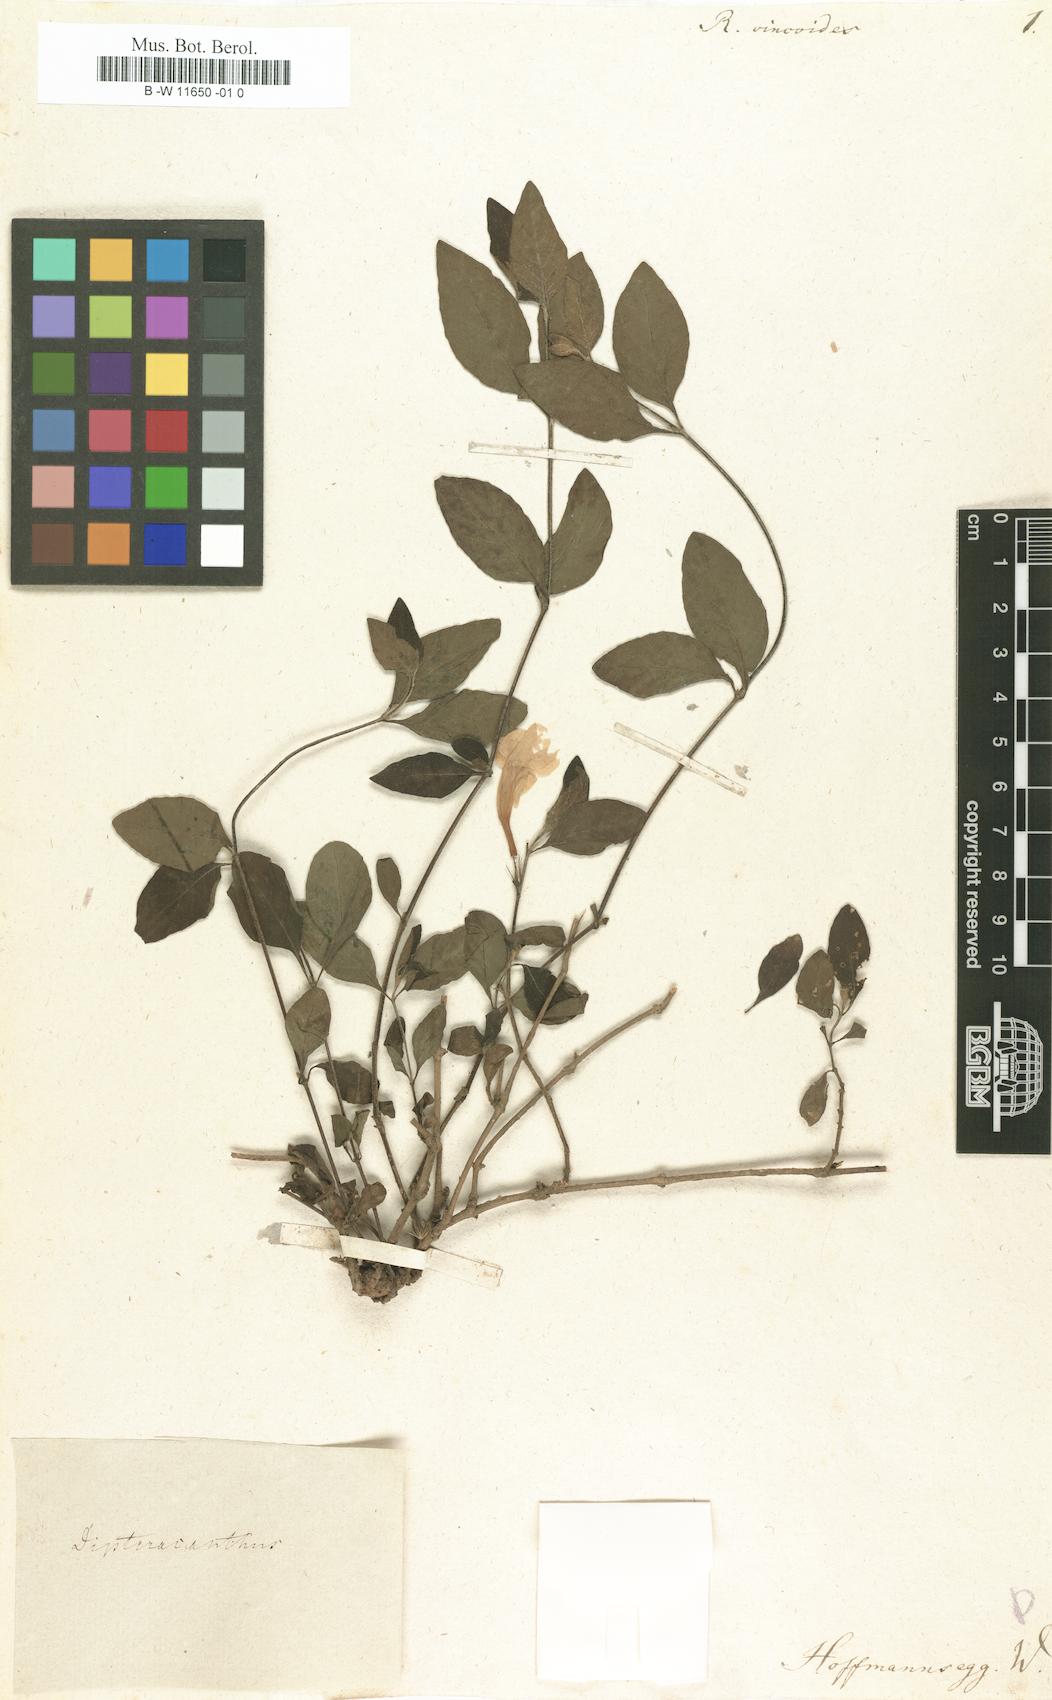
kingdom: Plantae
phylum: Tracheophyta
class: Magnoliopsida
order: Lamiales
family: Acanthaceae
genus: Ruellia
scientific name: Ruellia vincoides
